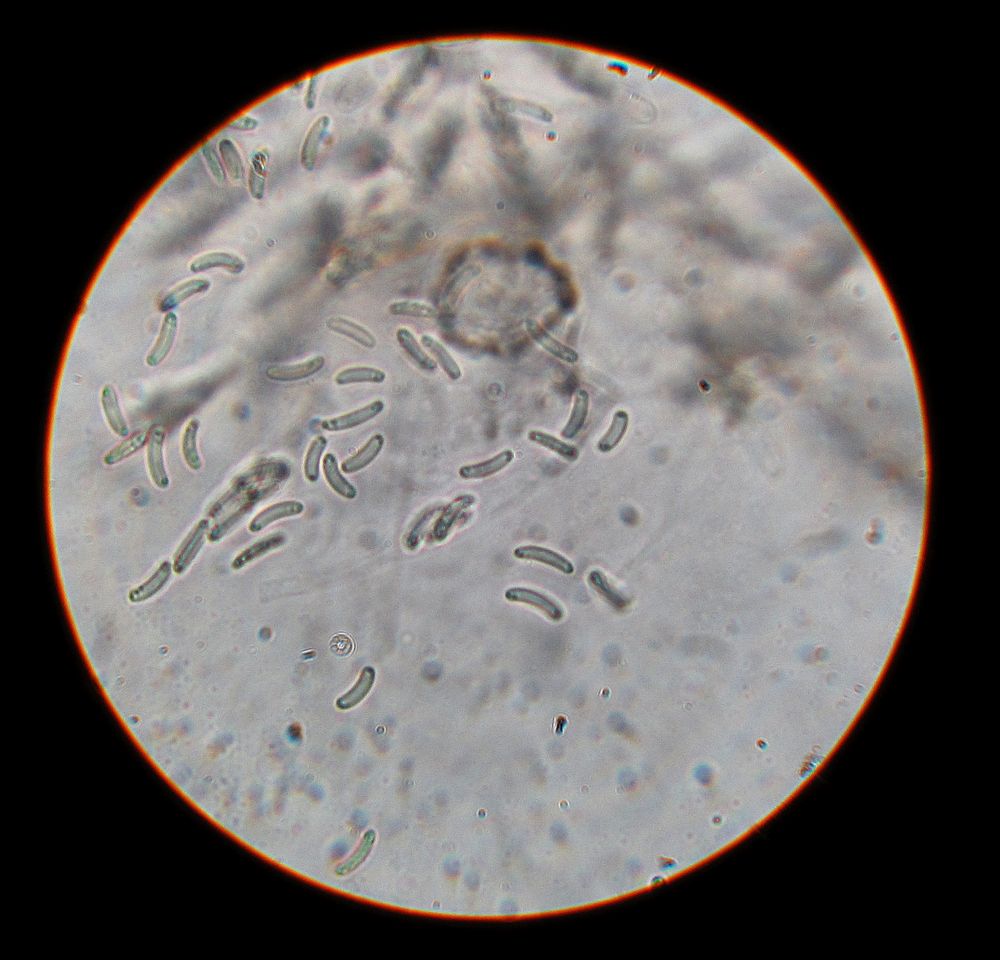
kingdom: Fungi
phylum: Ascomycota
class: Sordariomycetes
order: Xylariales
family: Diatrypaceae
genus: Eutypa
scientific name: Eutypa
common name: kulskorpe
